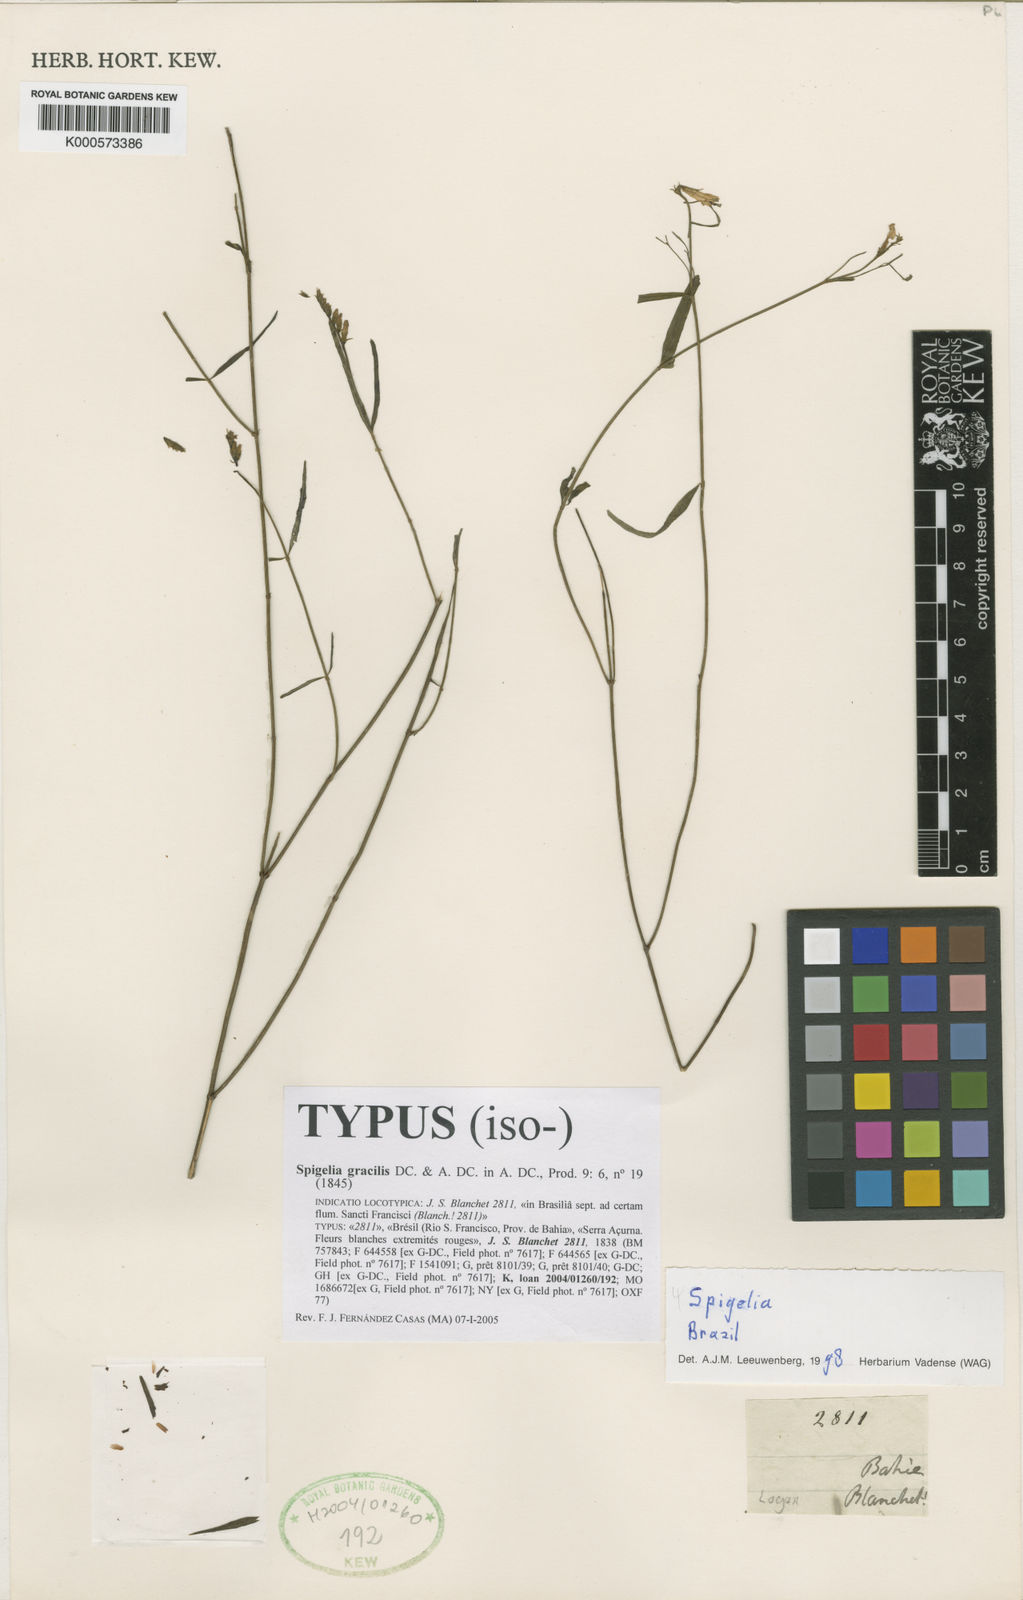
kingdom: Plantae
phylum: Tracheophyta
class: Magnoliopsida
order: Gentianales
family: Loganiaceae
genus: Spigelia
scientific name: Spigelia
